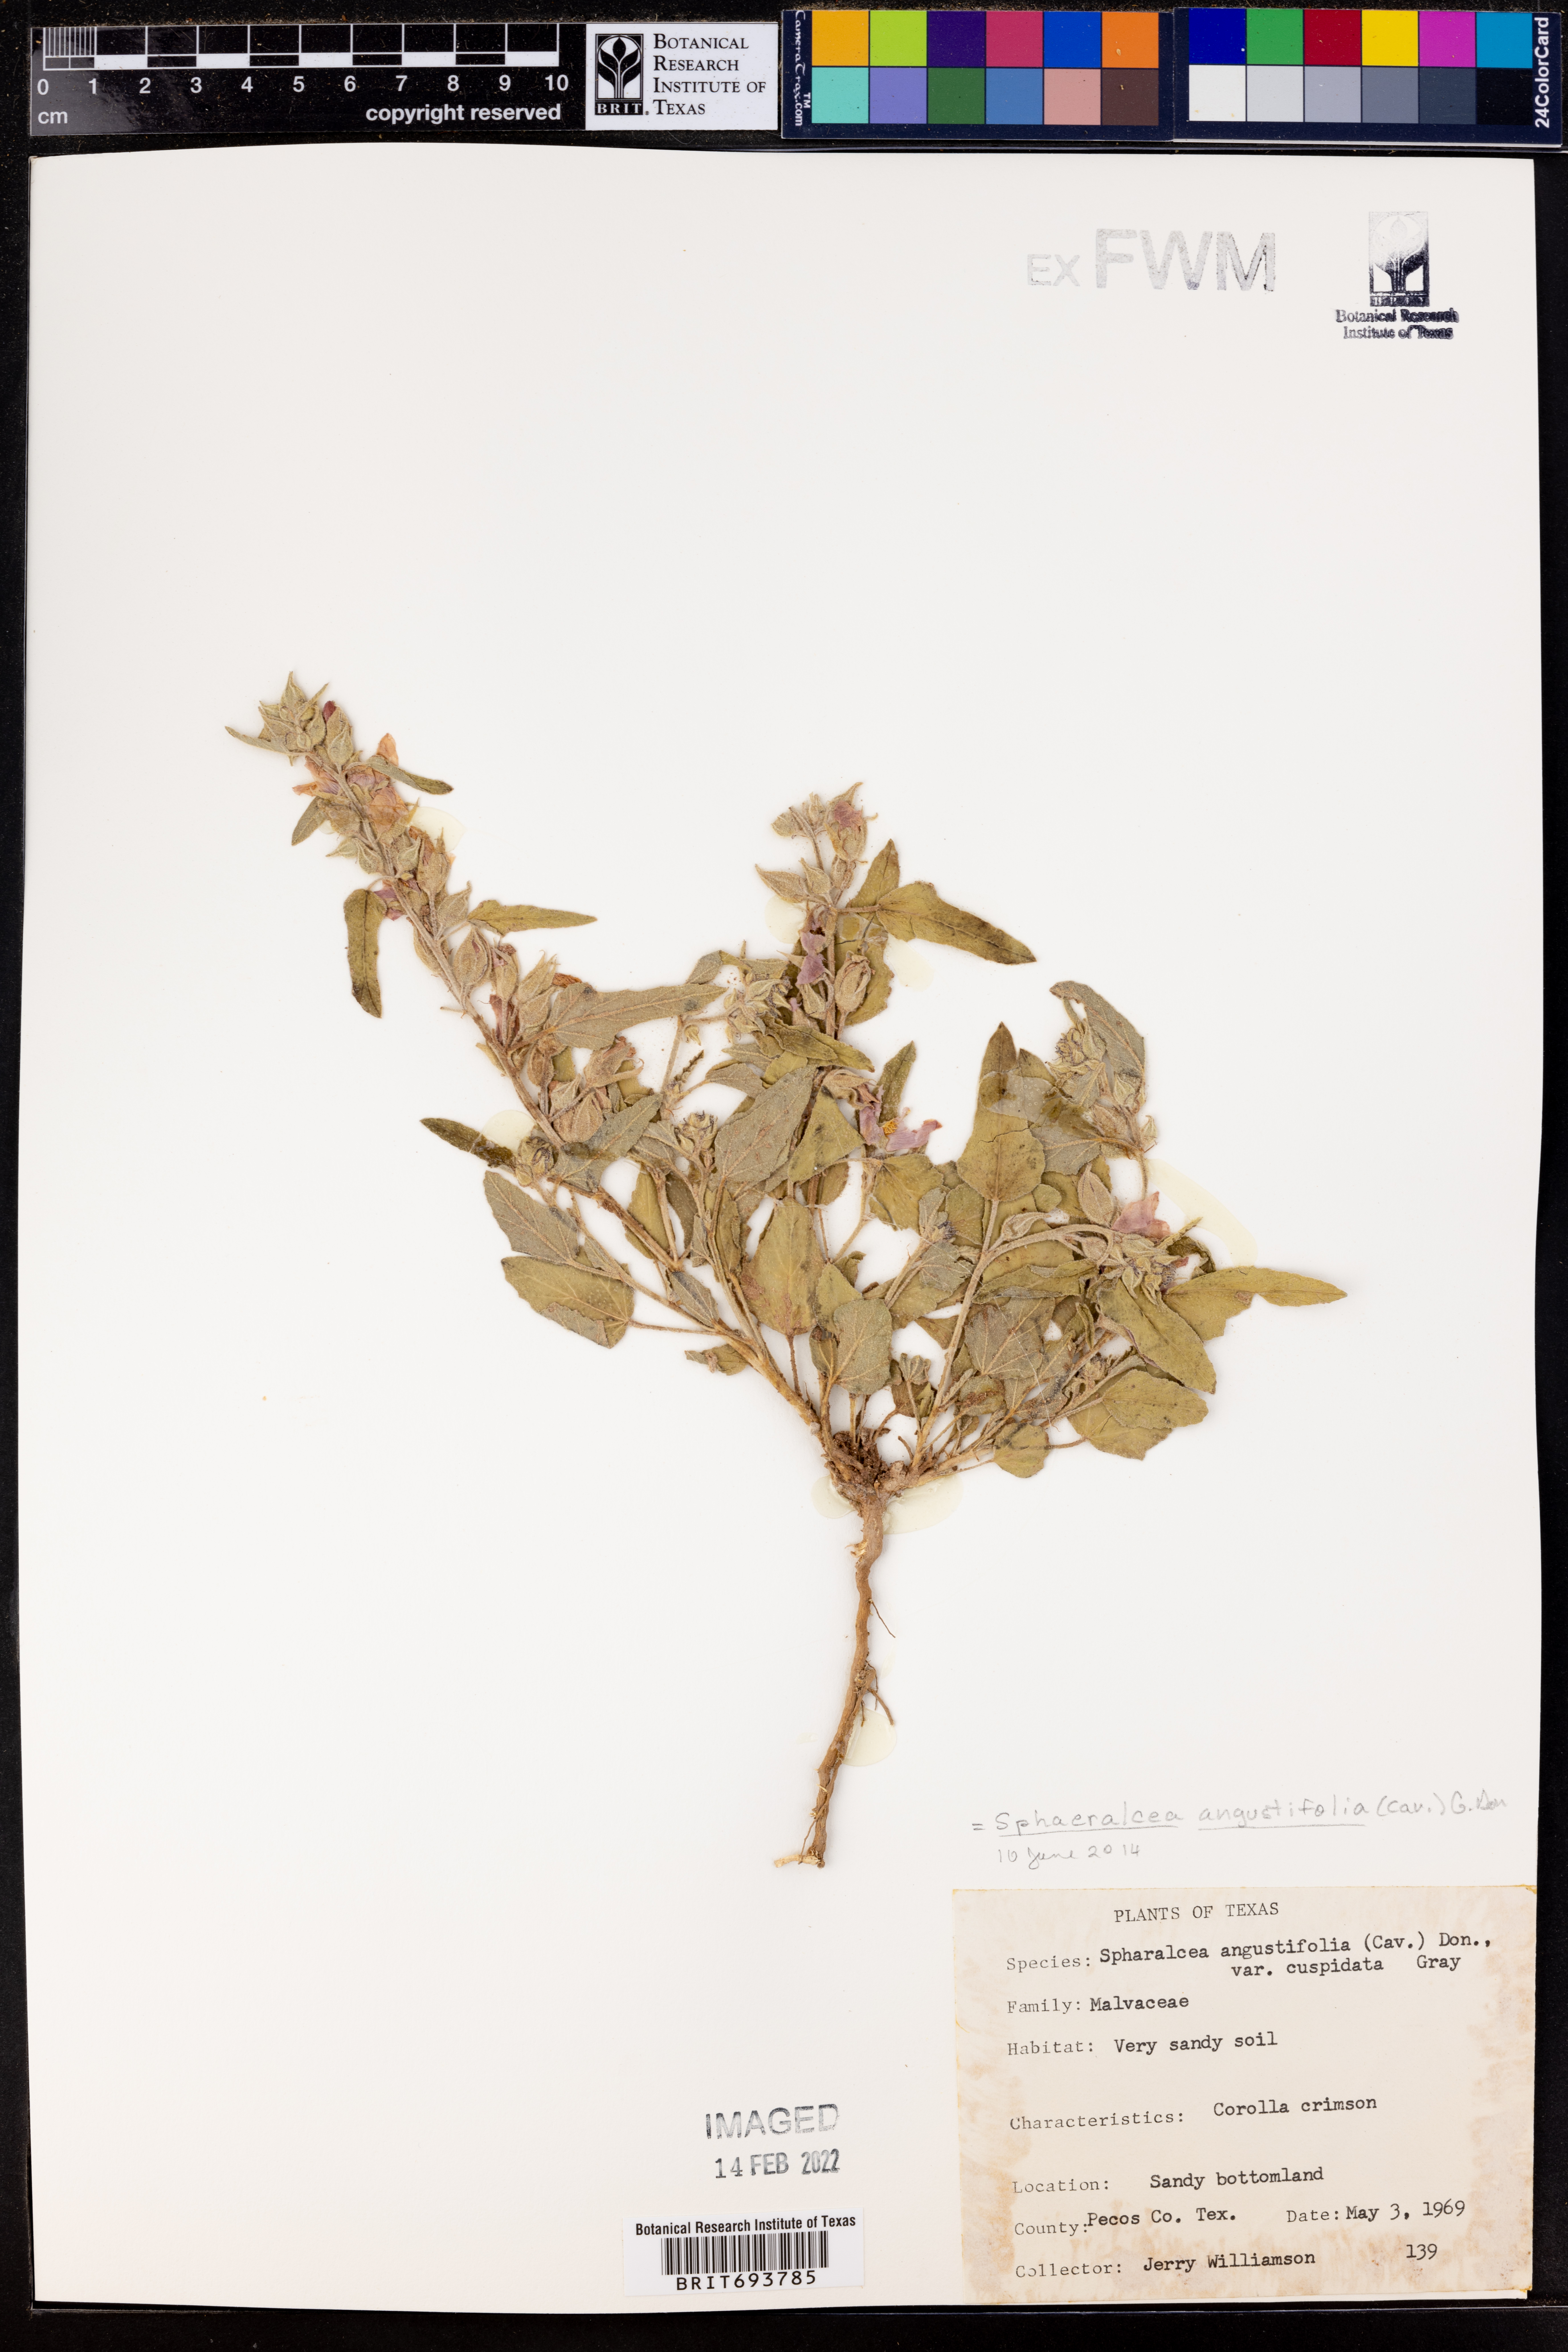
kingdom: Plantae
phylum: Tracheophyta
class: Magnoliopsida
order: Malvales
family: Malvaceae
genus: Sphaeralcea
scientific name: Sphaeralcea angustifolia
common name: Copper globe-mallow
